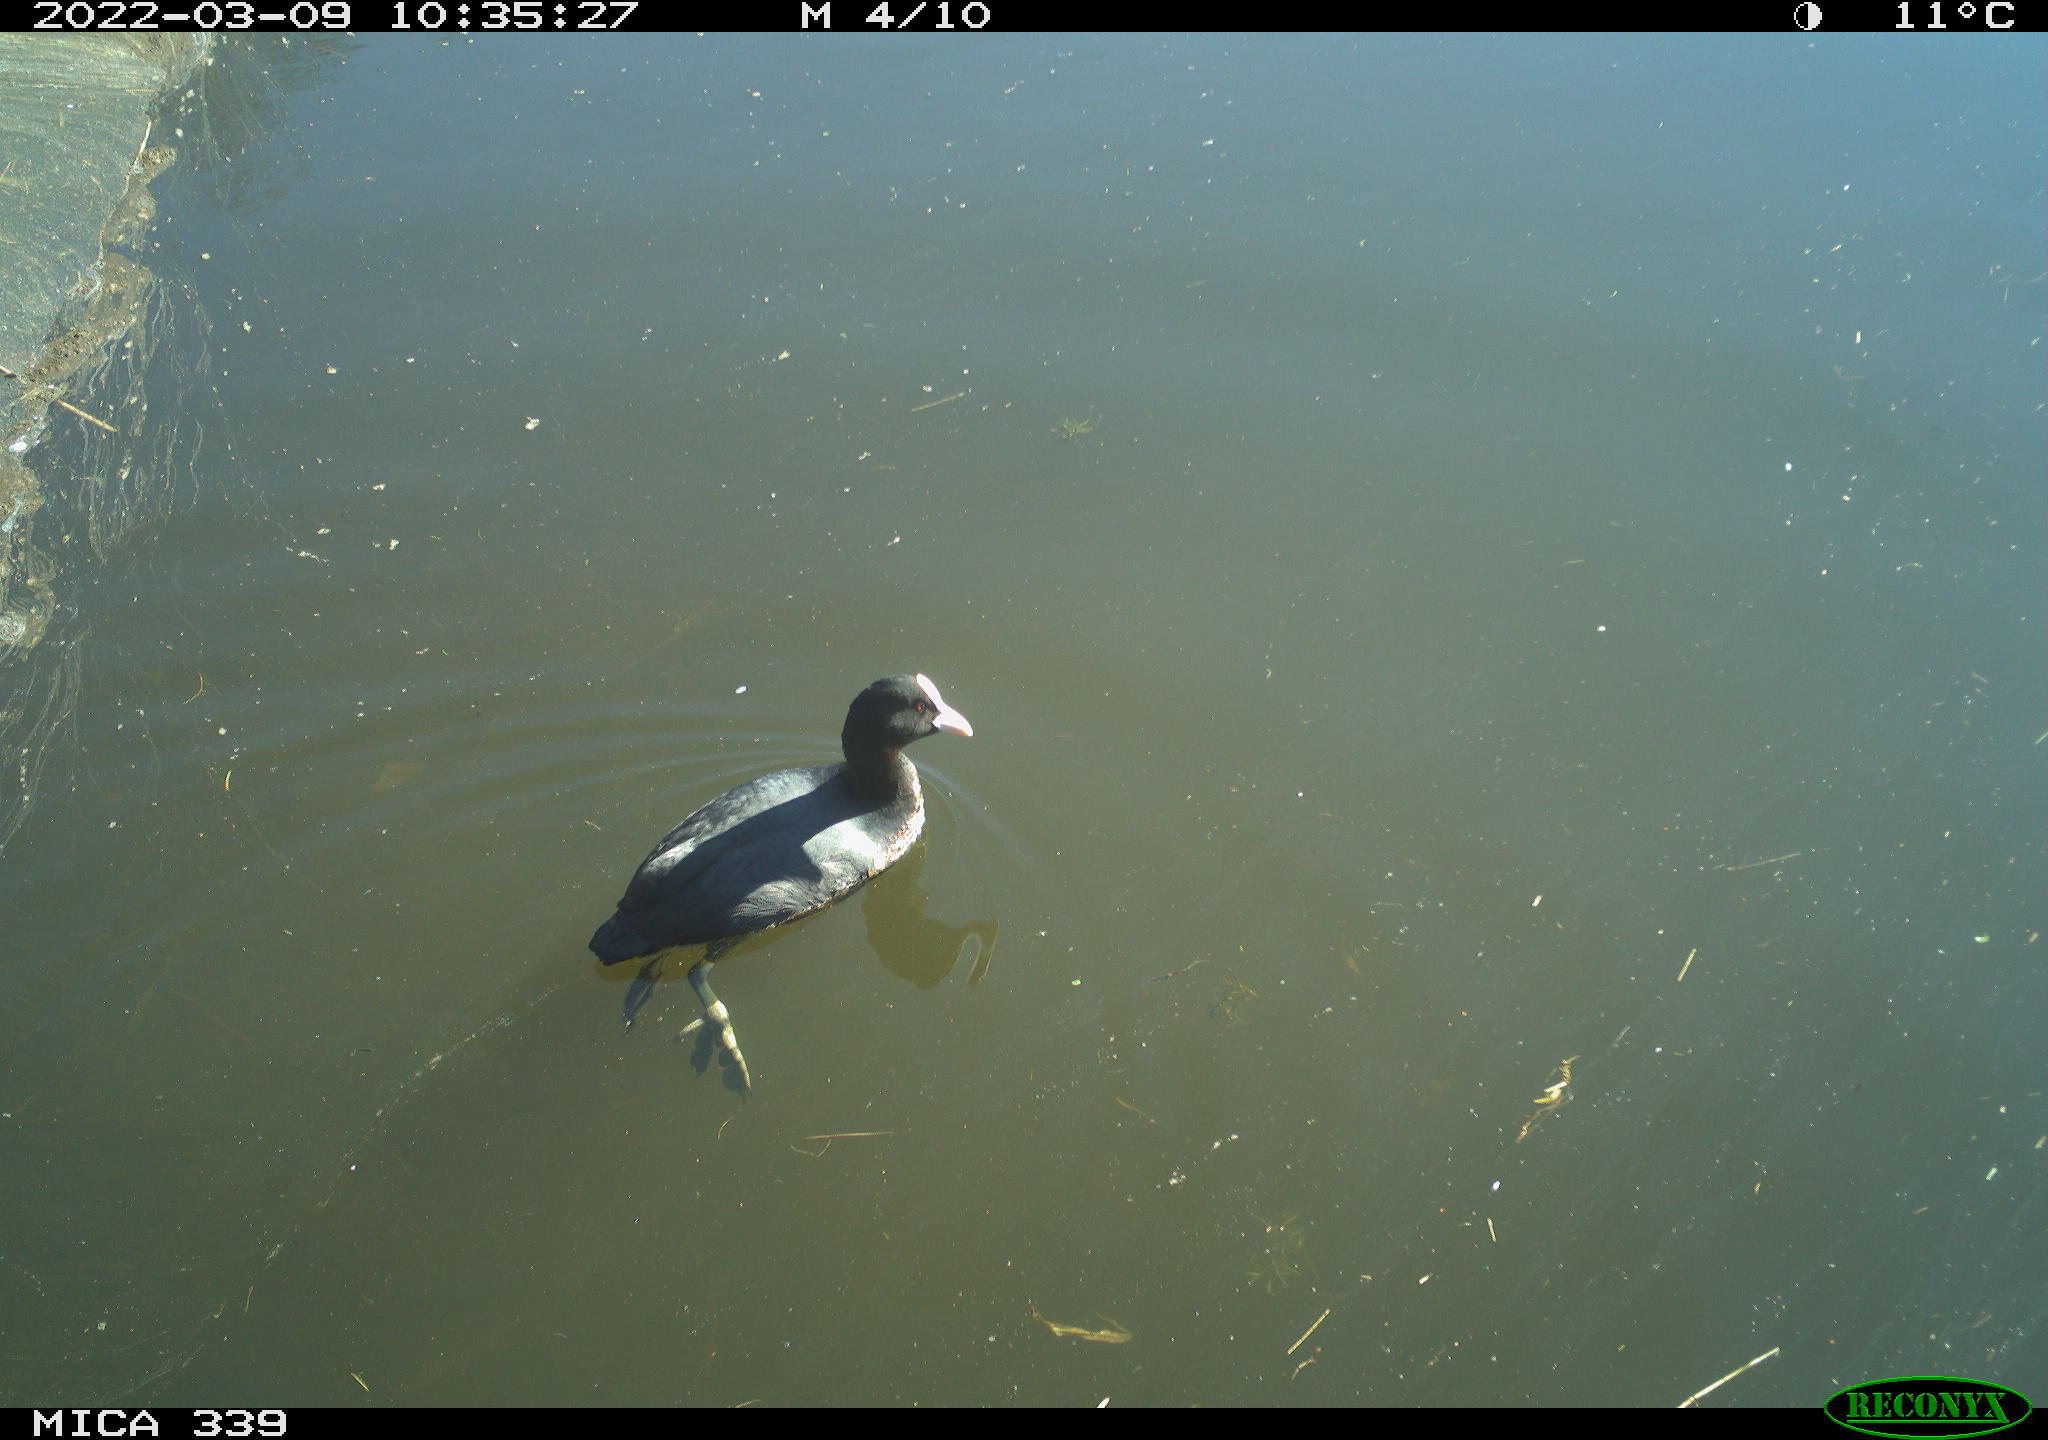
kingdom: Animalia
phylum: Chordata
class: Aves
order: Gruiformes
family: Rallidae
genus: Fulica
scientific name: Fulica atra
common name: Eurasian coot
